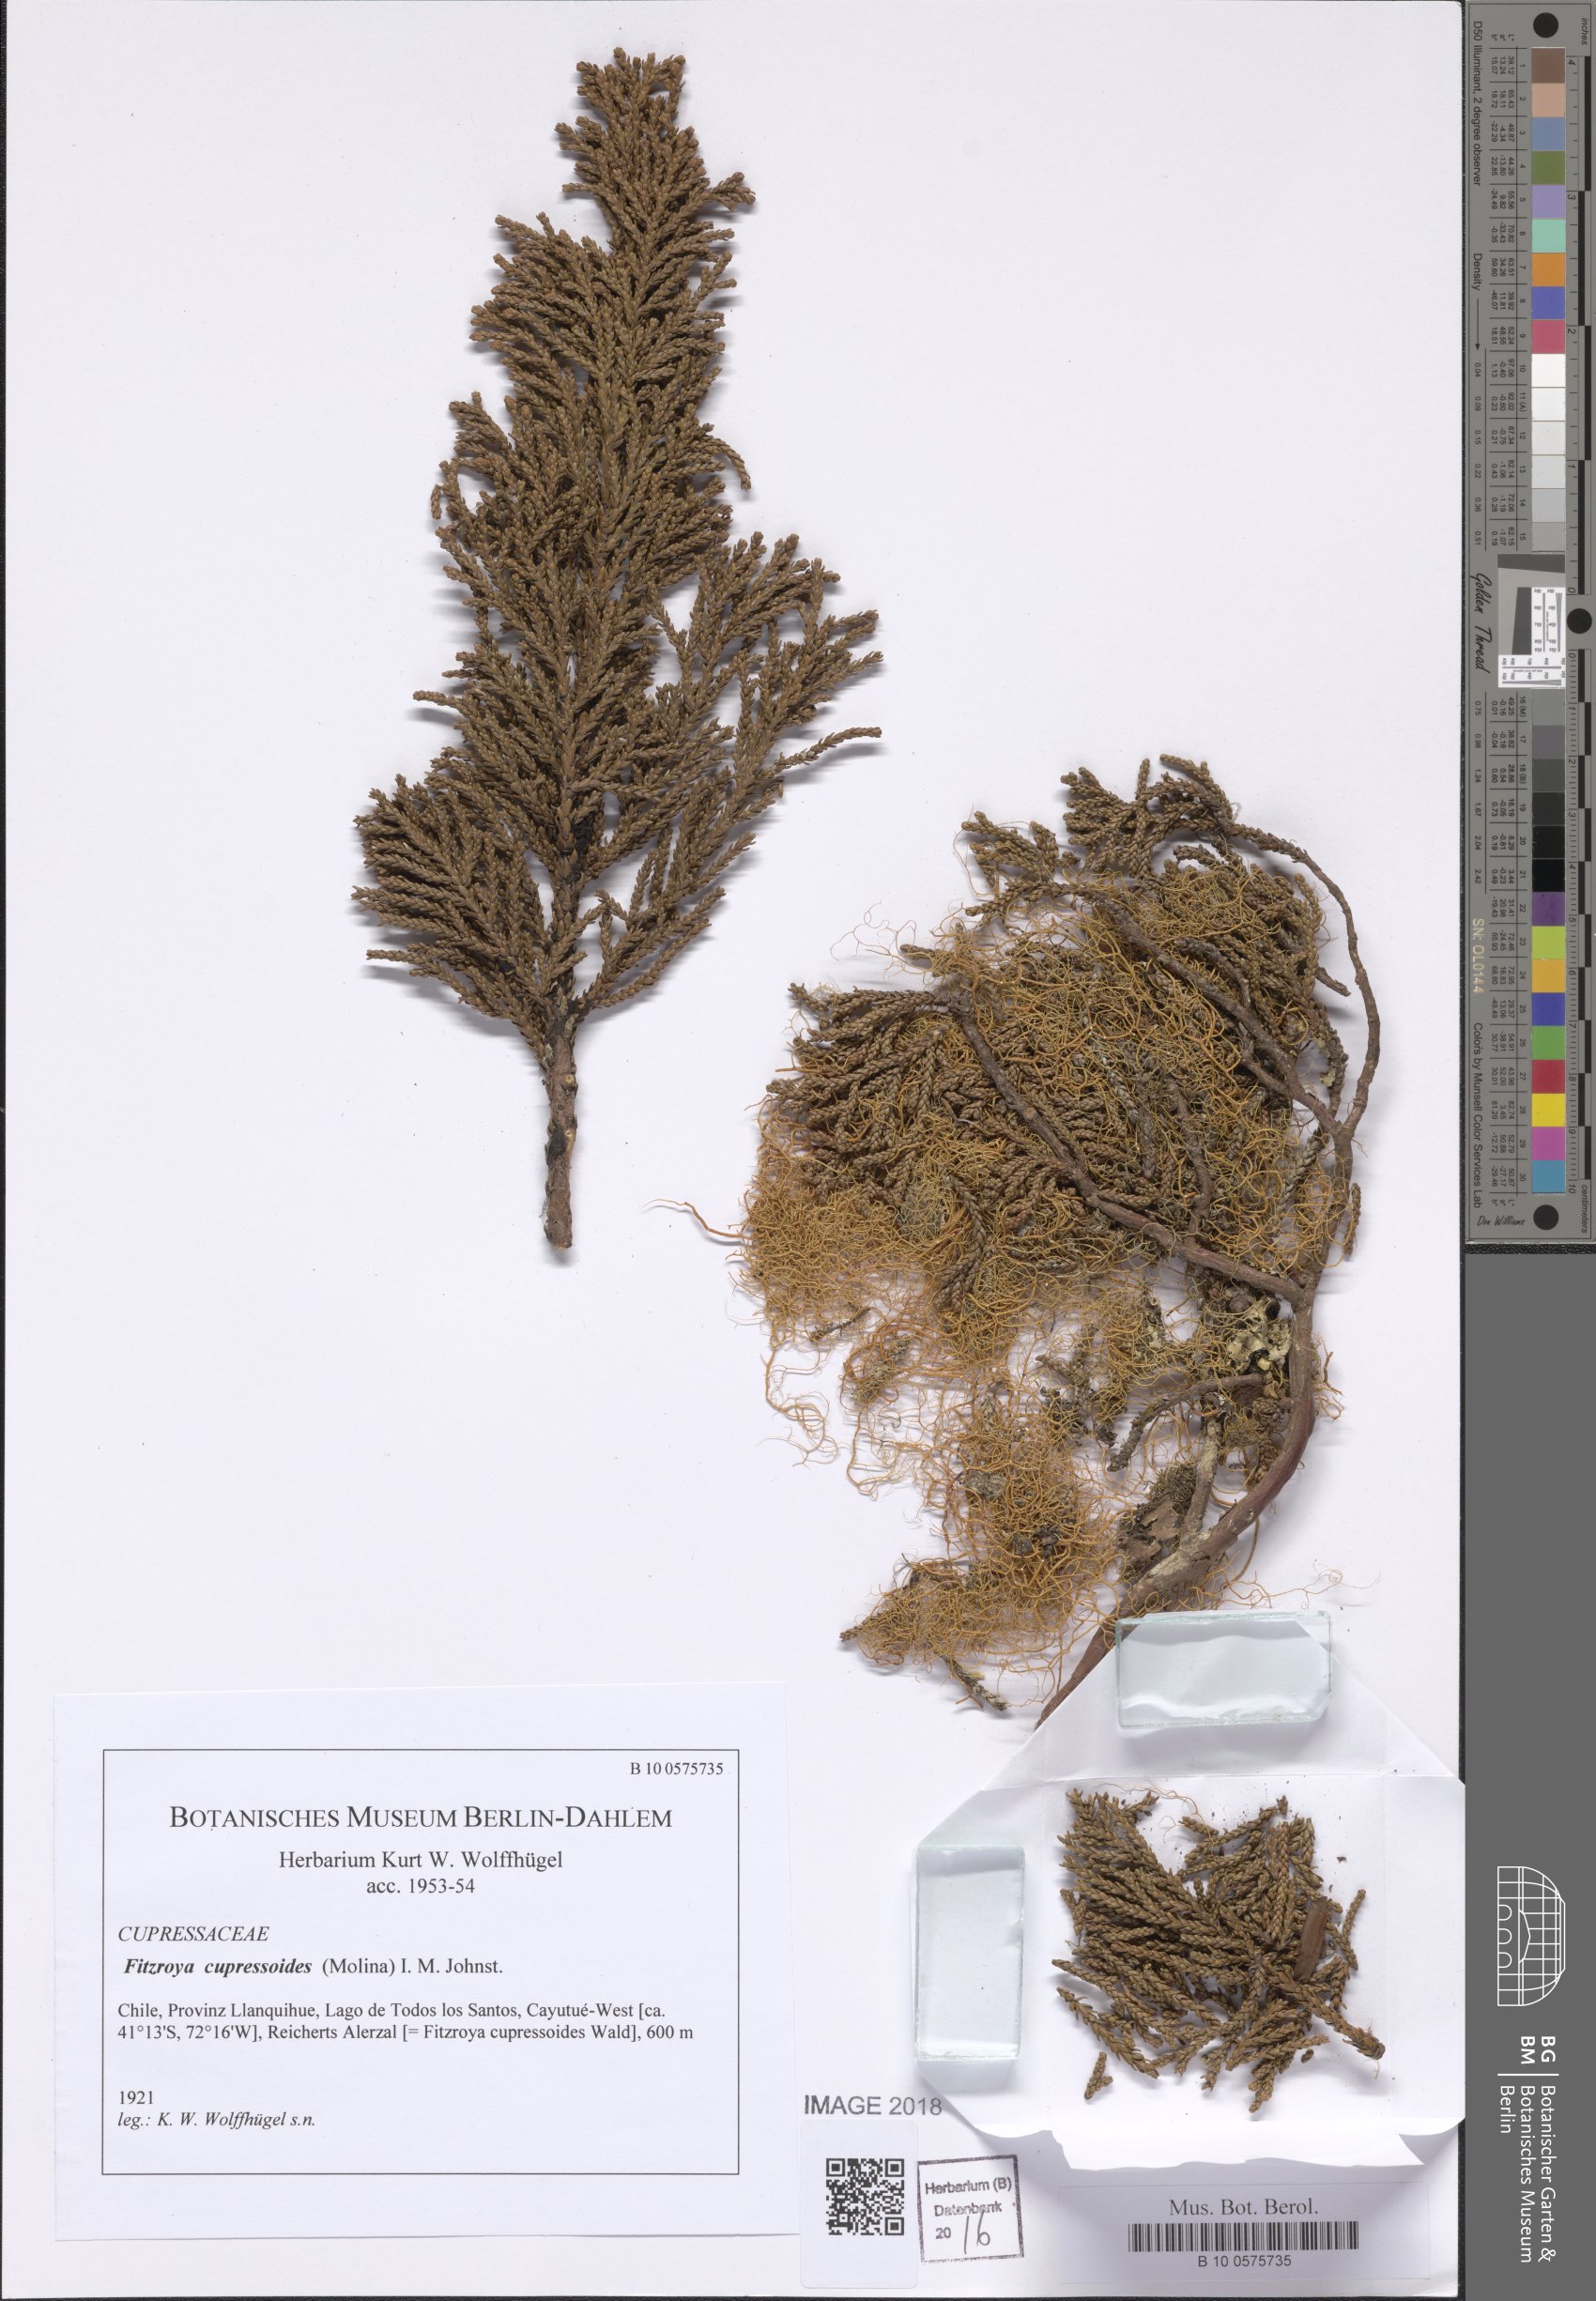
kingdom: Plantae
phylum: Tracheophyta
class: Pinopsida
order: Pinales
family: Cupressaceae
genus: Fitzroya
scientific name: Fitzroya cupressoides
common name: Patagonian cypress
